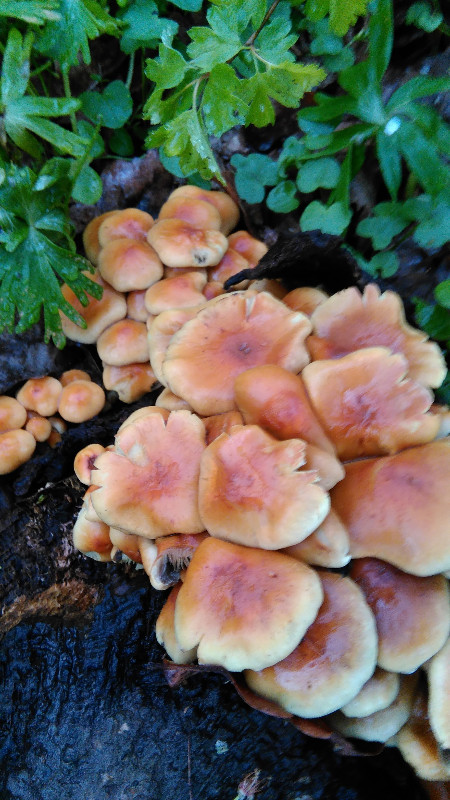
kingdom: Fungi
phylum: Basidiomycota
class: Agaricomycetes
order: Agaricales
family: Strophariaceae
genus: Hypholoma
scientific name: Hypholoma fasciculare
